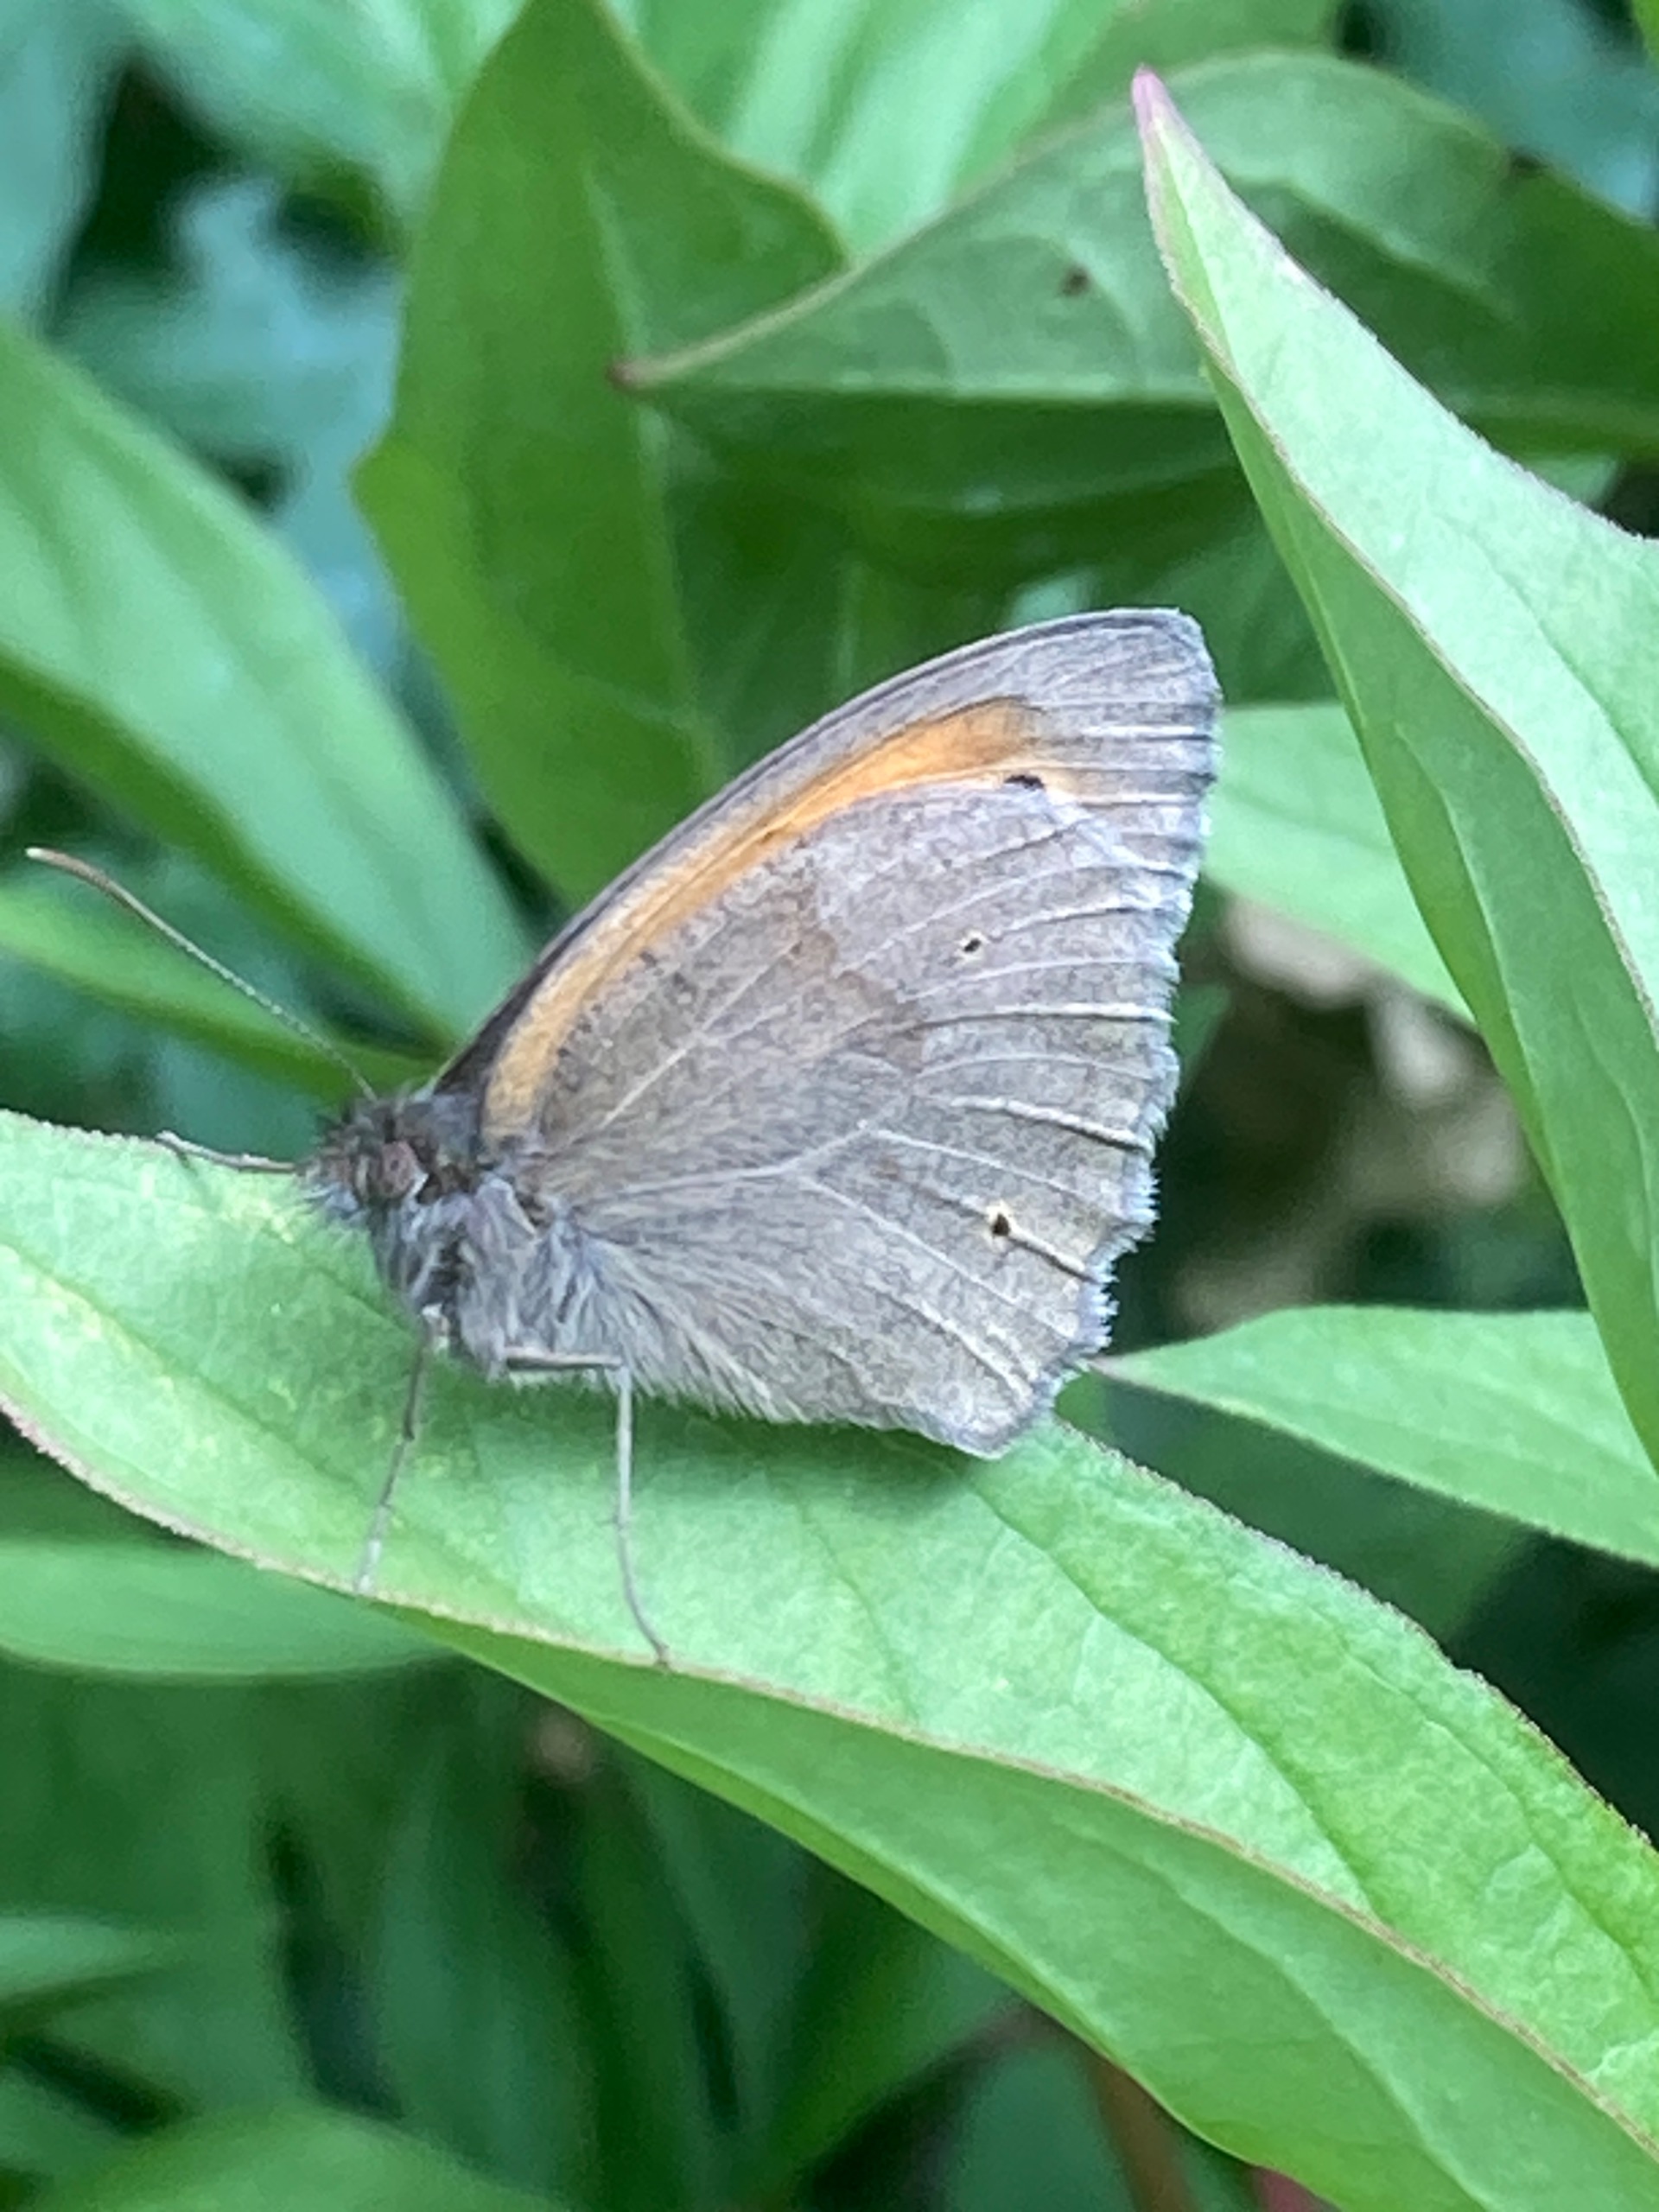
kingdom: Animalia
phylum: Arthropoda
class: Insecta
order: Lepidoptera
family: Nymphalidae
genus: Maniola
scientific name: Maniola jurtina
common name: Græsrandøje
